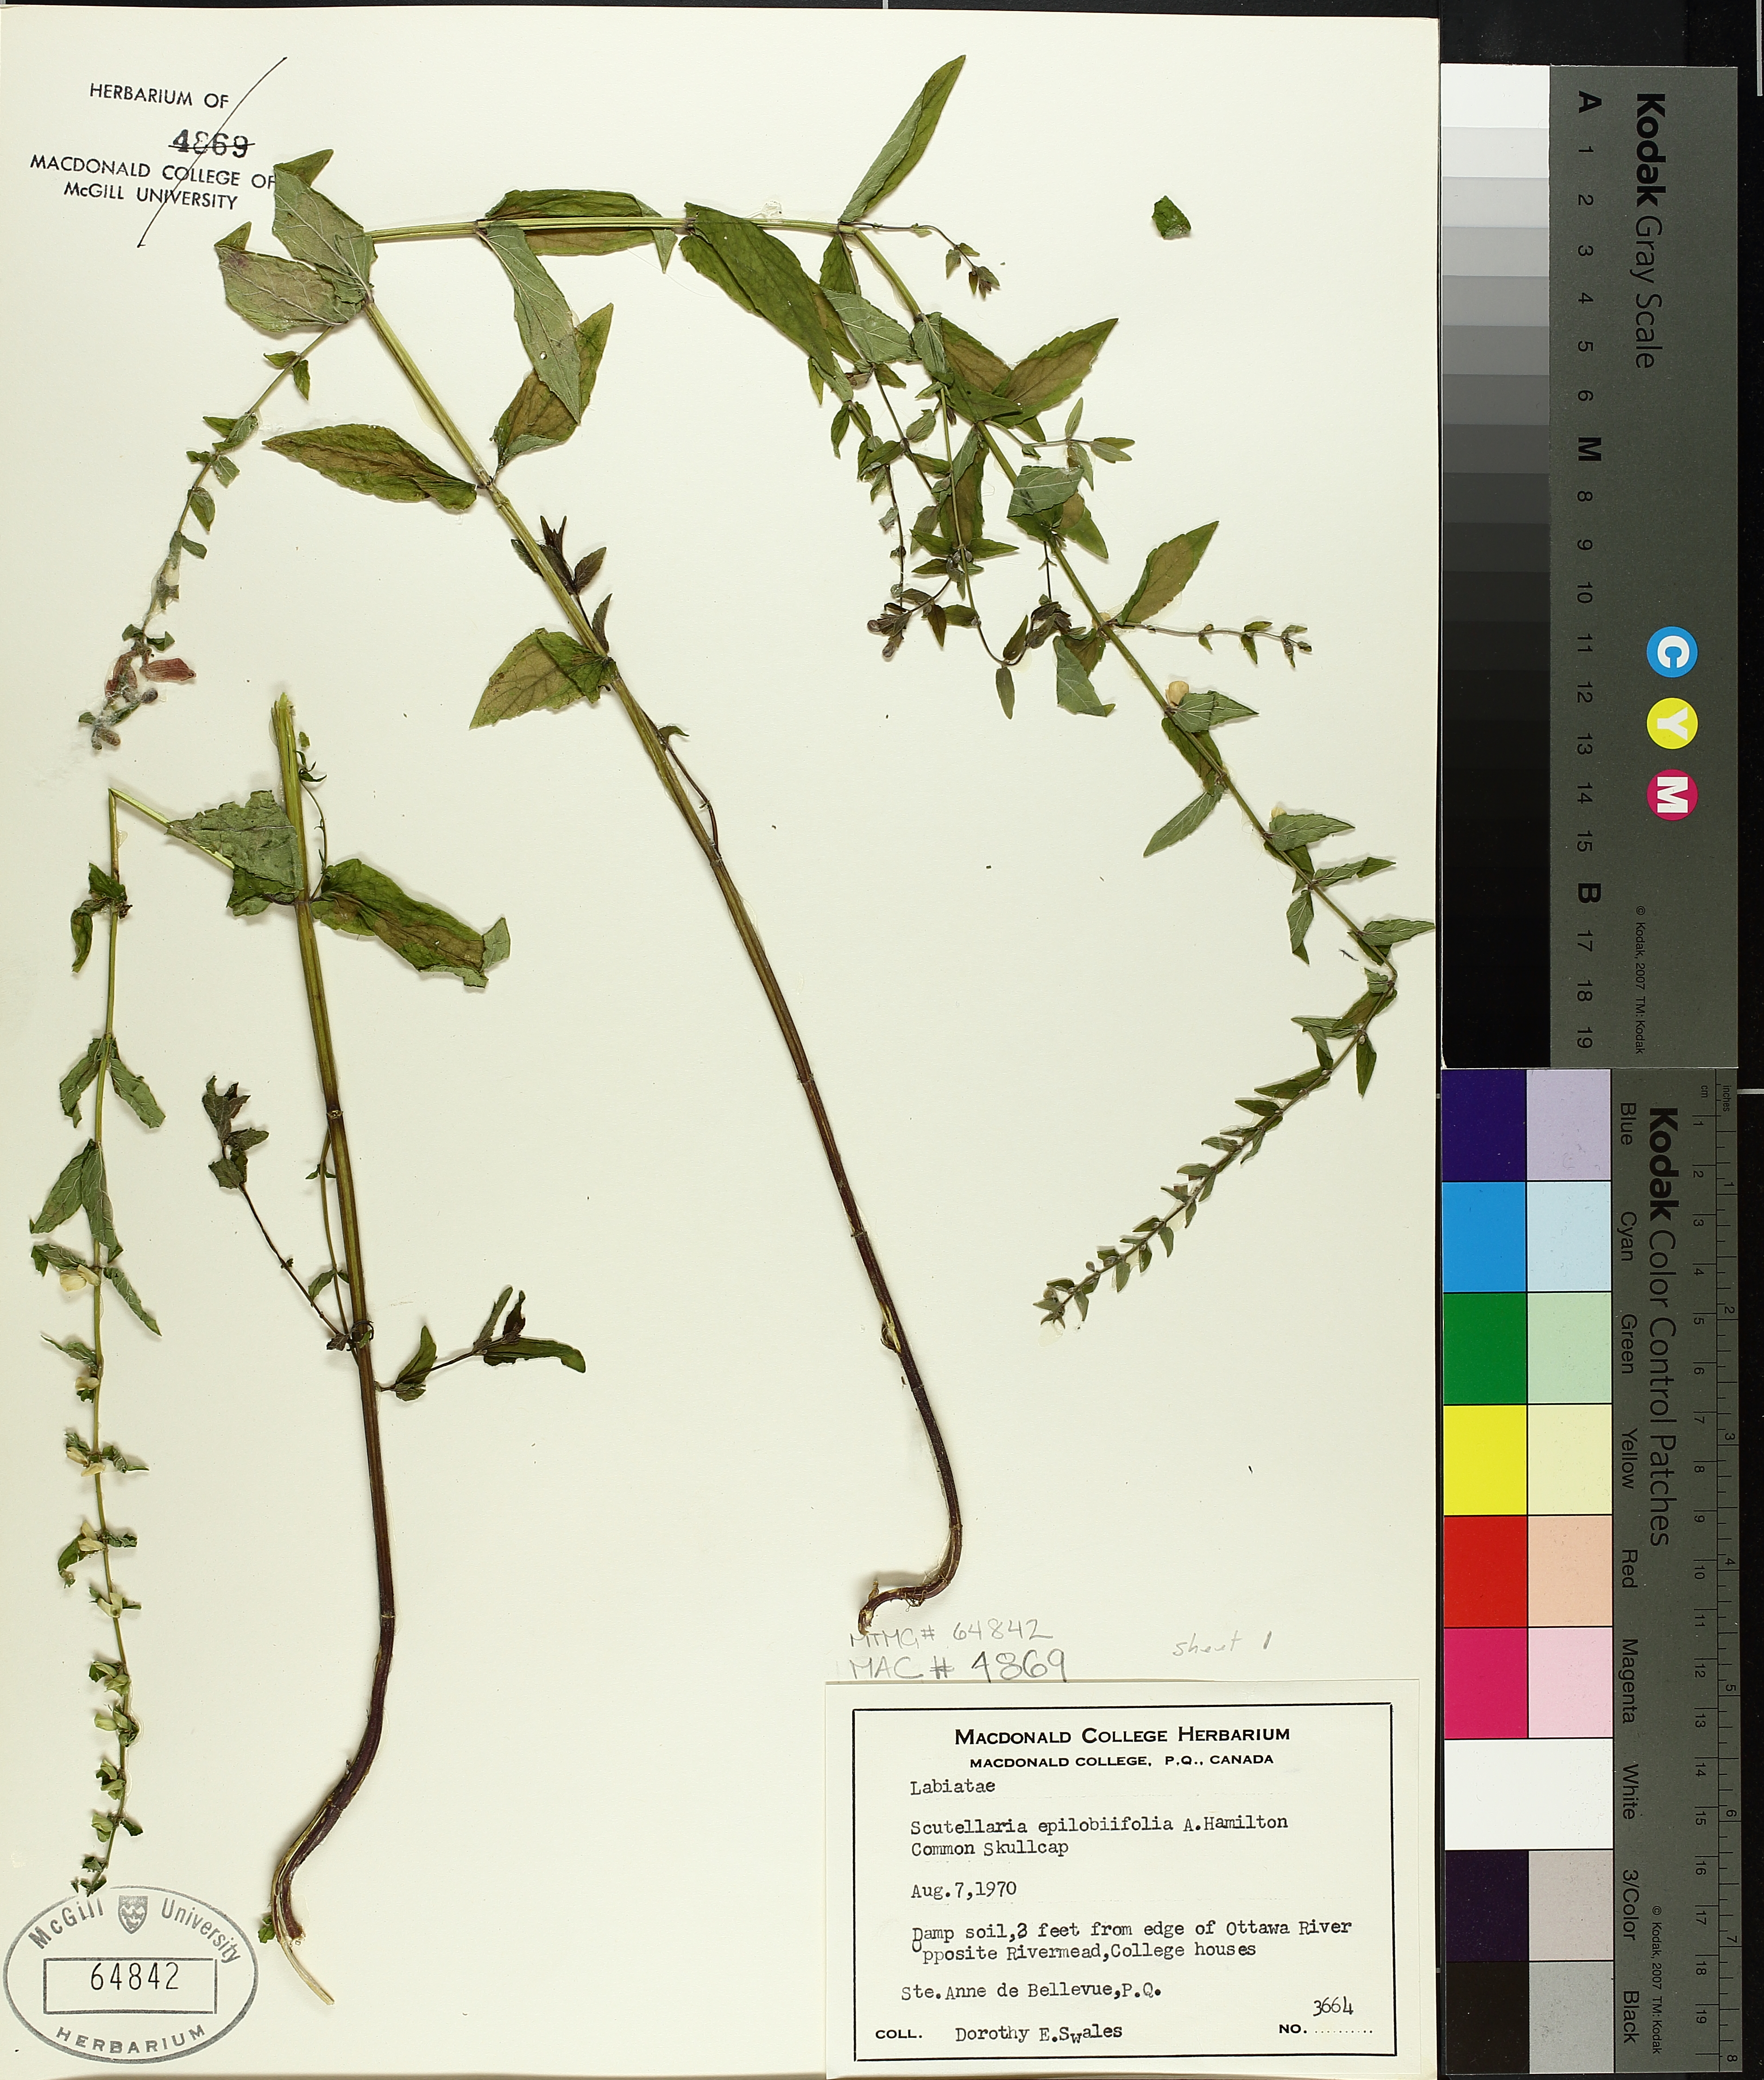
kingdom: Plantae
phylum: Tracheophyta
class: Magnoliopsida
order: Lamiales
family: Lamiaceae
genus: Scutellaria
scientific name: Scutellaria galericulata
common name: Skullcap
